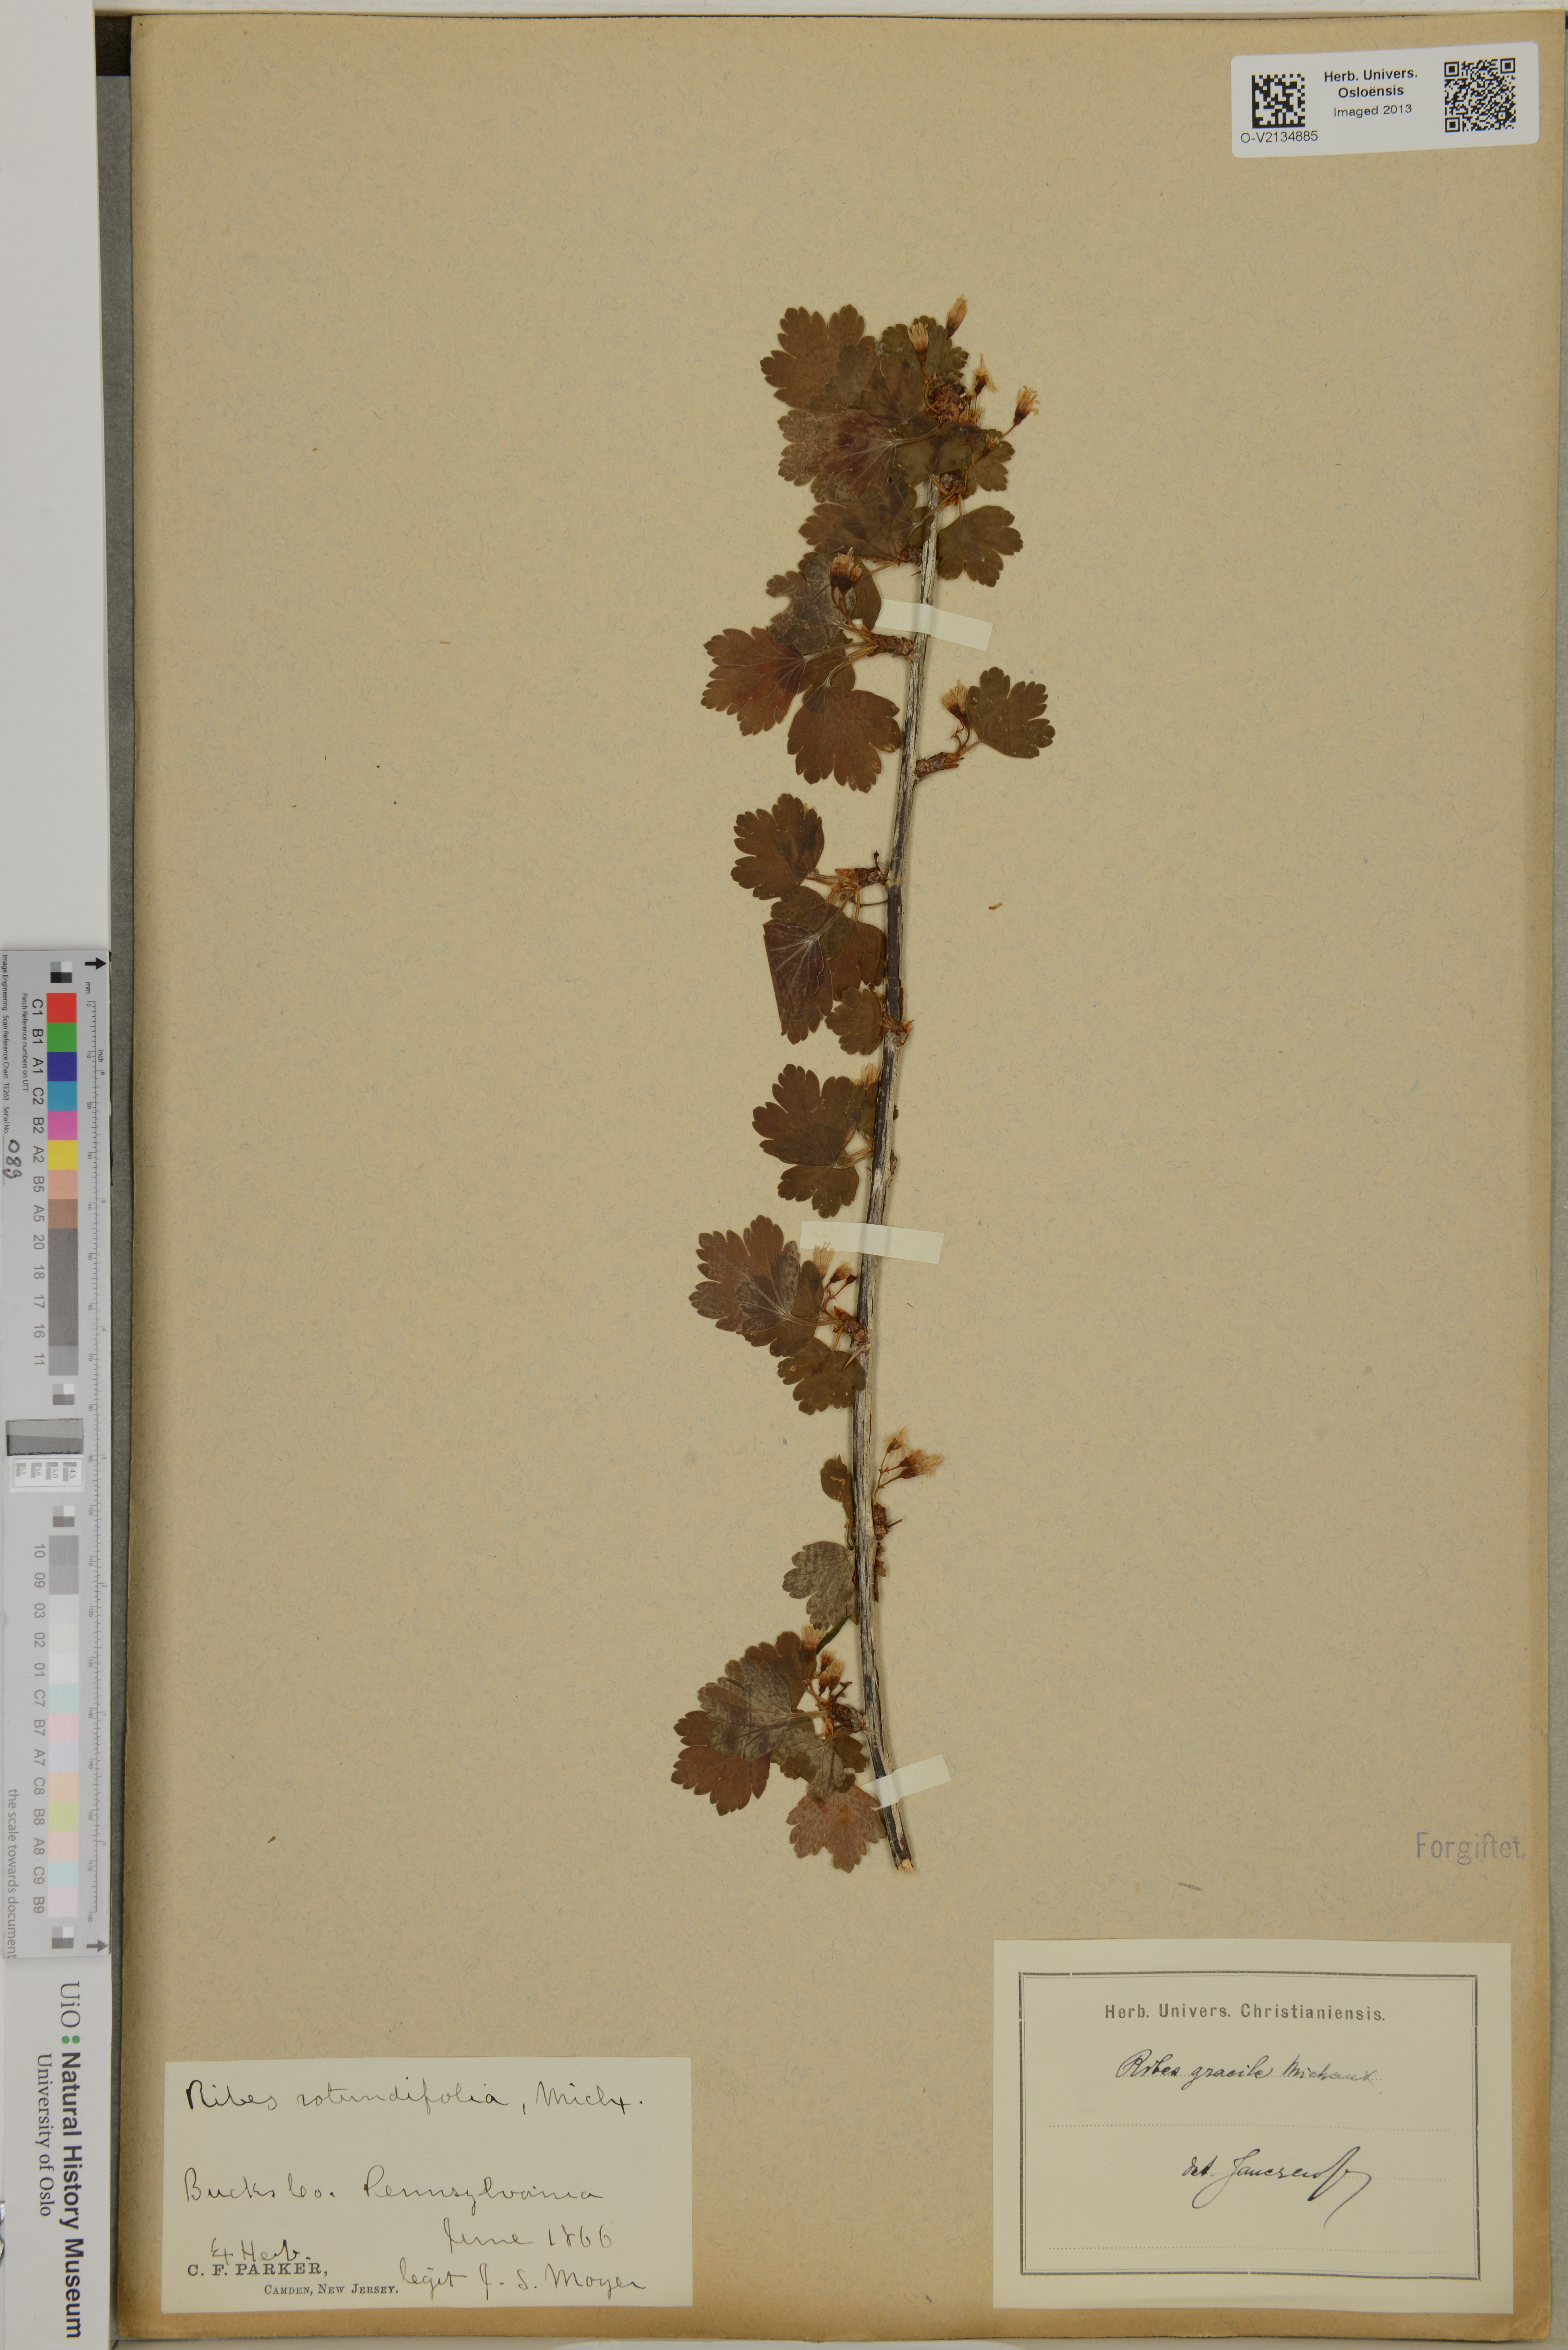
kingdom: Plantae
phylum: Tracheophyta
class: Magnoliopsida
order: Saxifragales
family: Grossulariaceae
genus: Ribes
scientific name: Ribes
